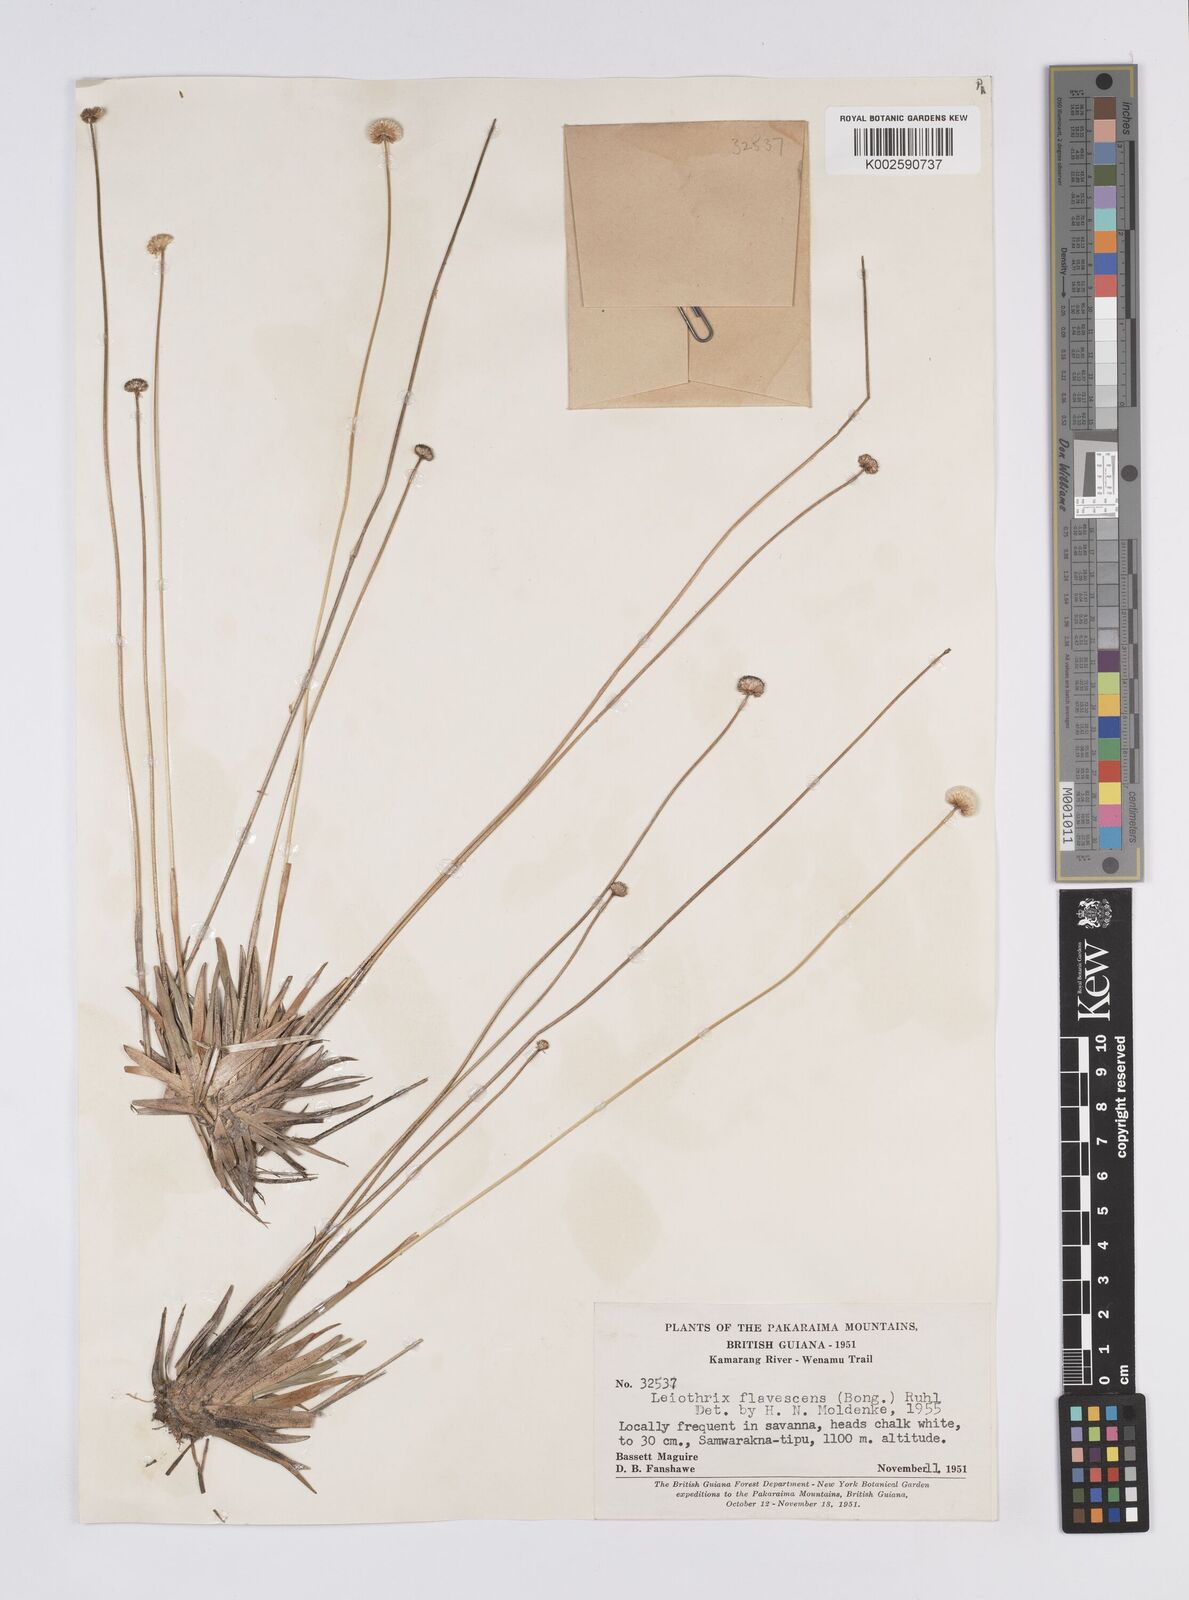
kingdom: Plantae
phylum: Tracheophyta
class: Liliopsida
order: Poales
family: Eriocaulaceae
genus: Leiothrix
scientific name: Leiothrix flavescens
